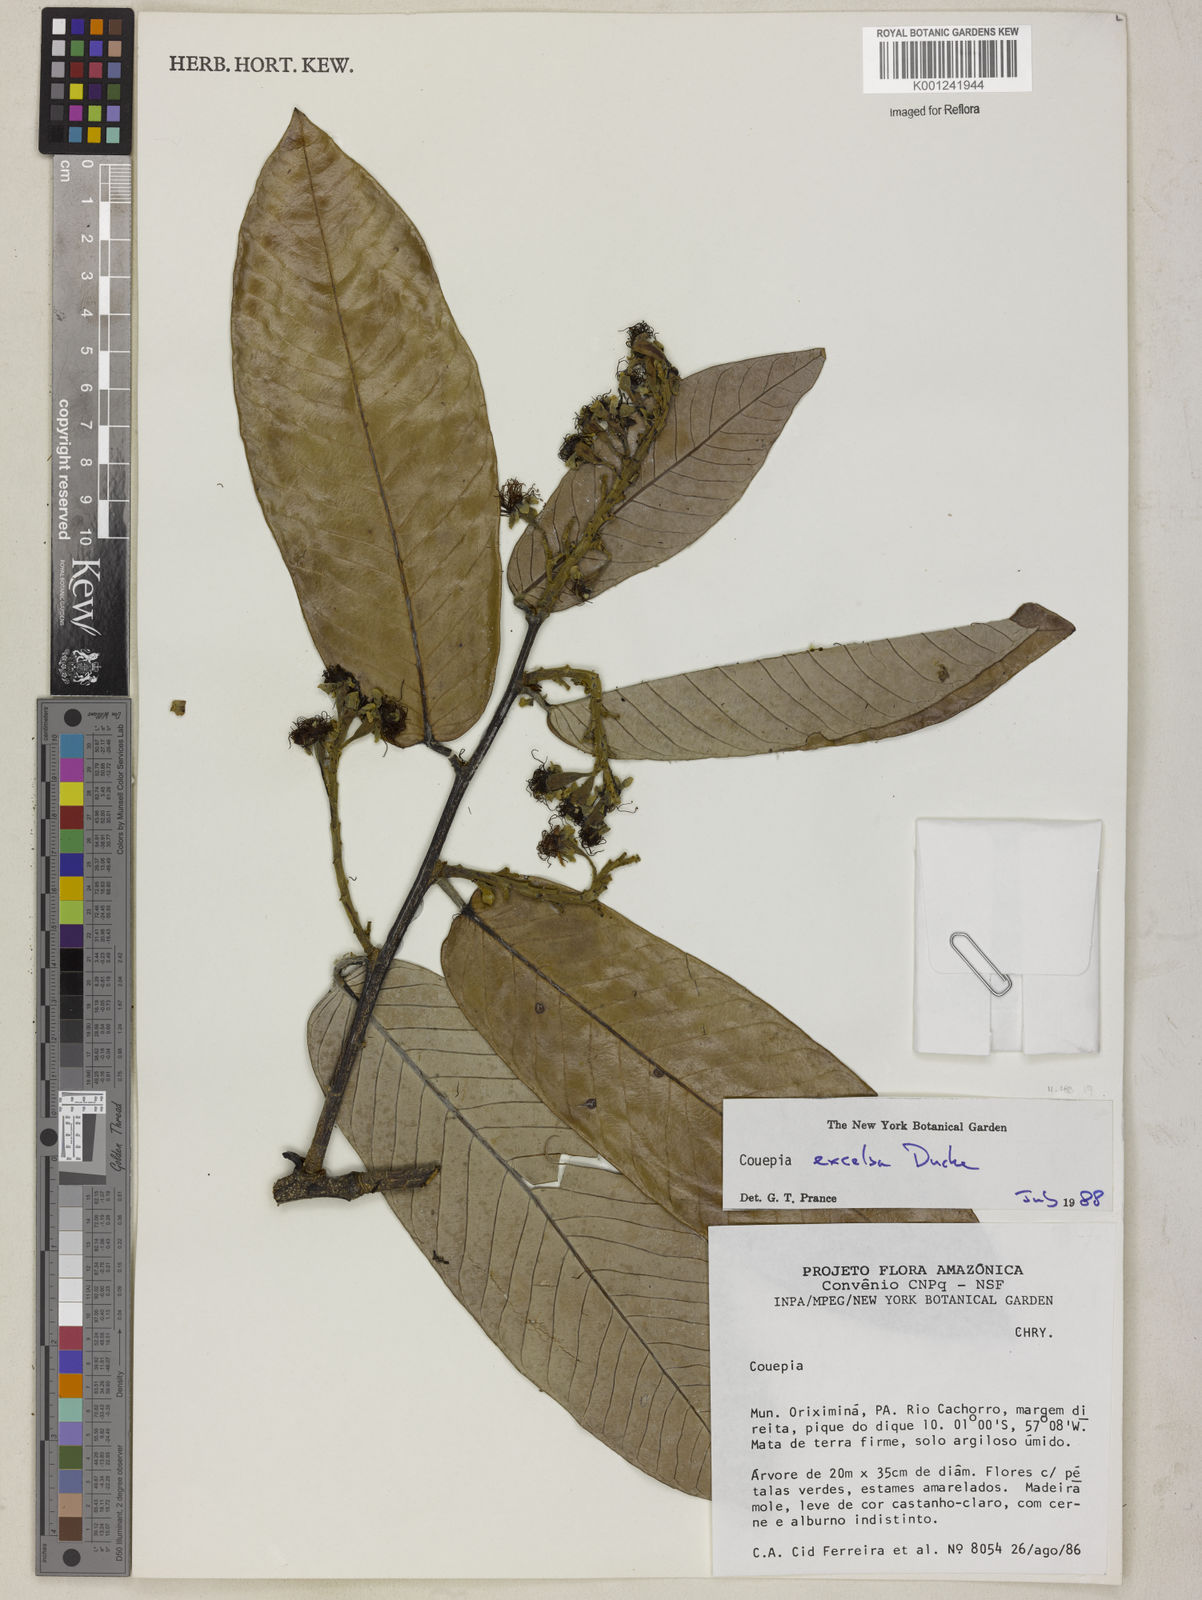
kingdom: Plantae
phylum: Tracheophyta
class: Magnoliopsida
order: Malpighiales
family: Chrysobalanaceae
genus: Couepia
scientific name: Couepia excelsa
